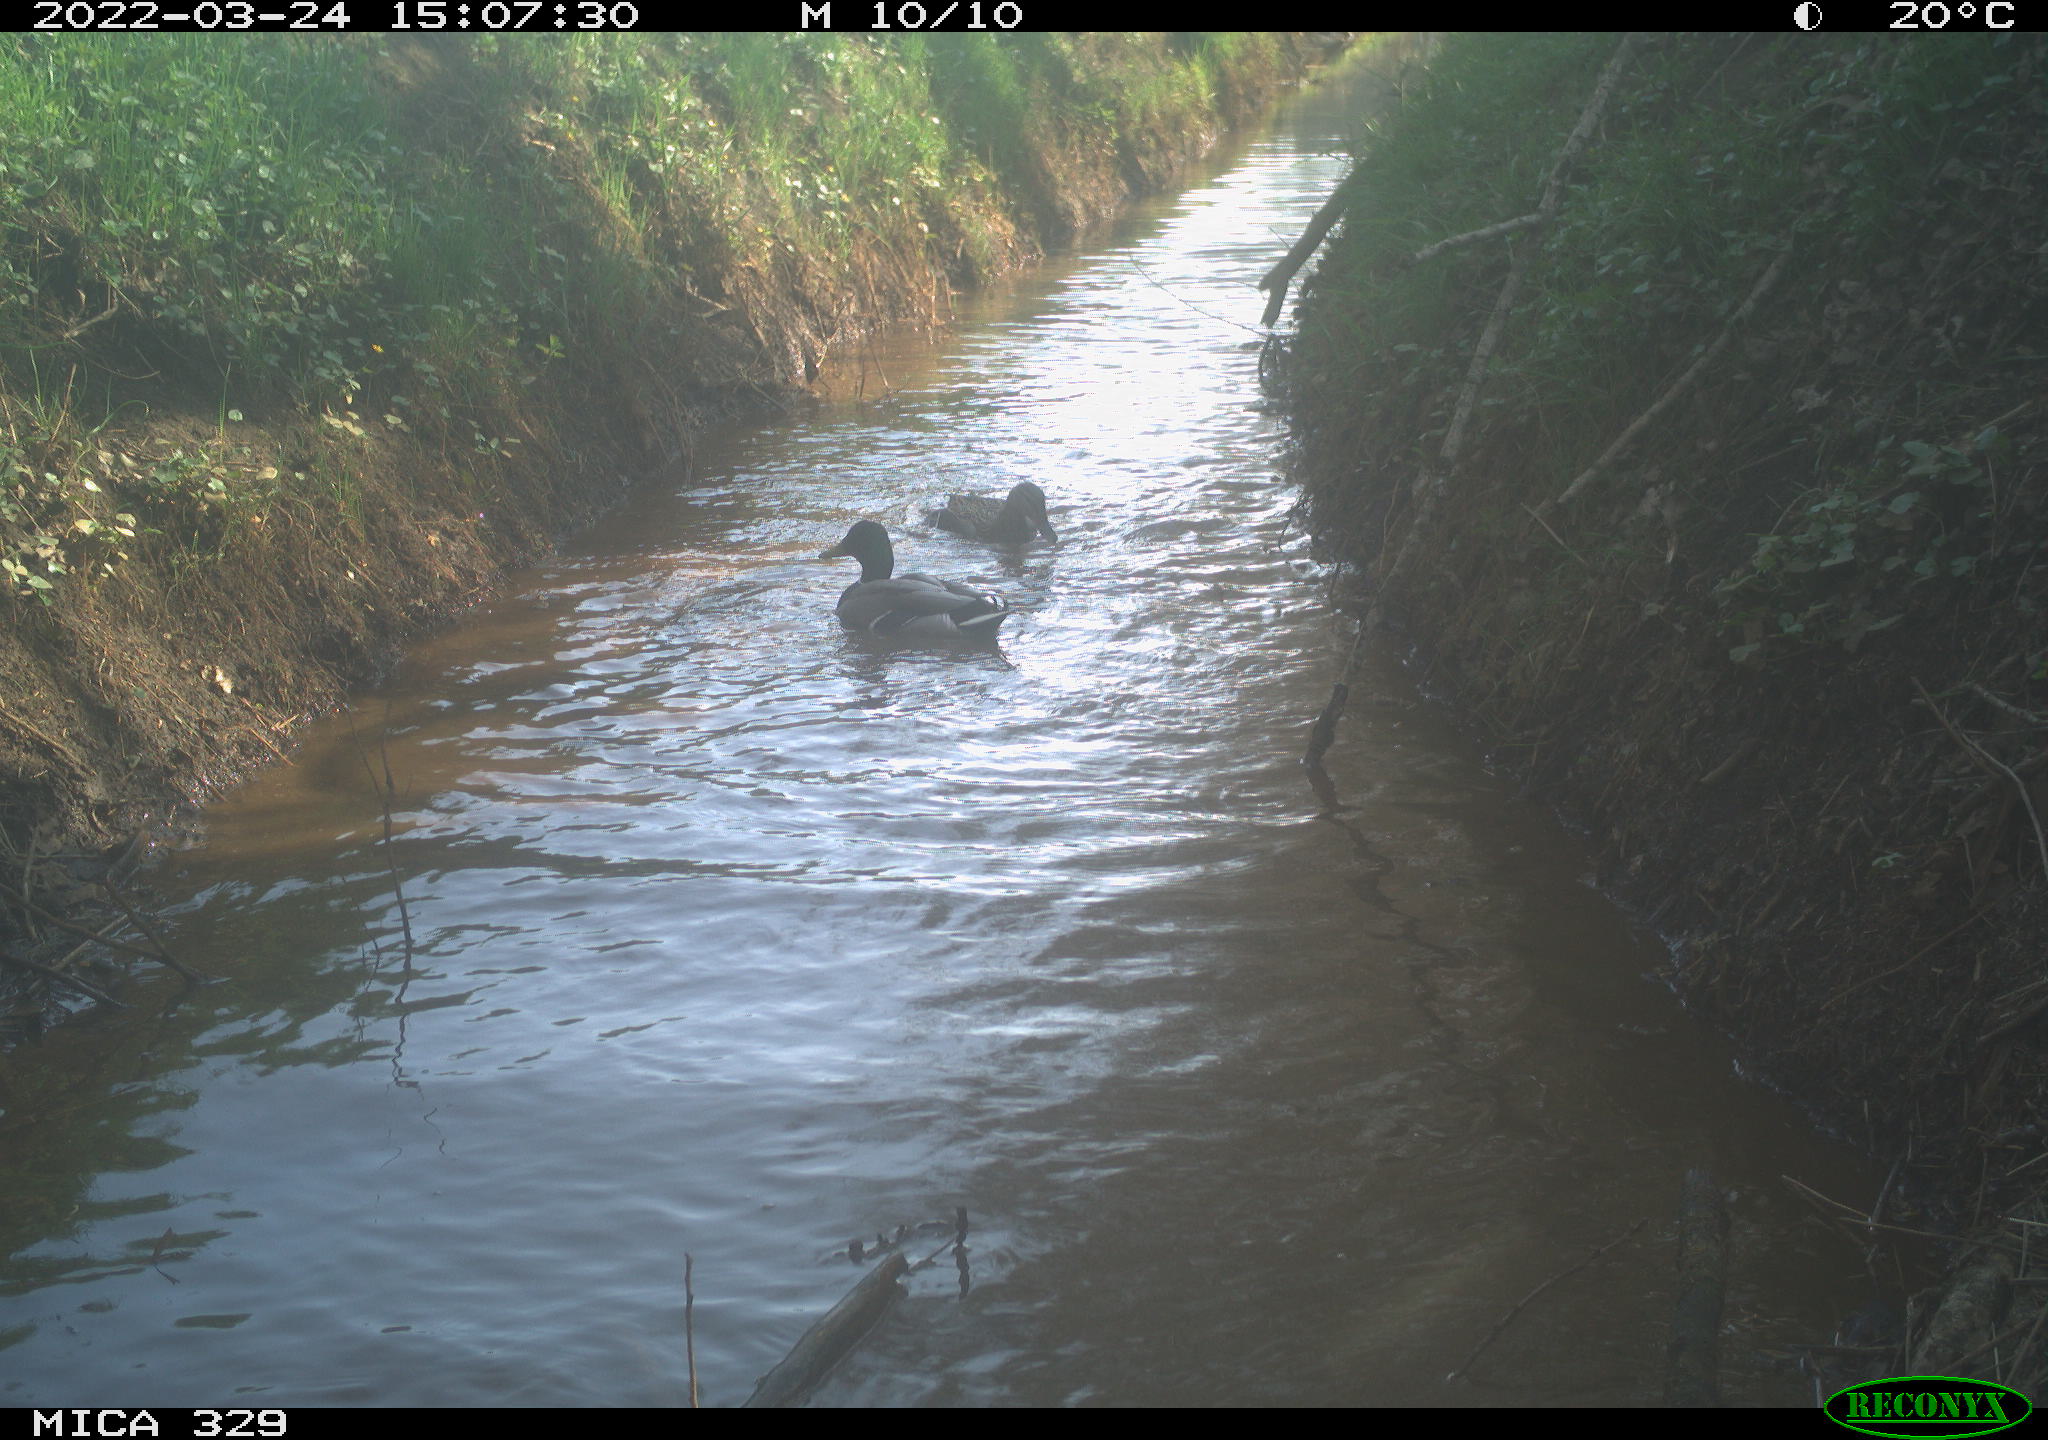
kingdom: Animalia
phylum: Chordata
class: Aves
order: Anseriformes
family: Anatidae
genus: Anas
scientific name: Anas platyrhynchos
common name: Mallard
